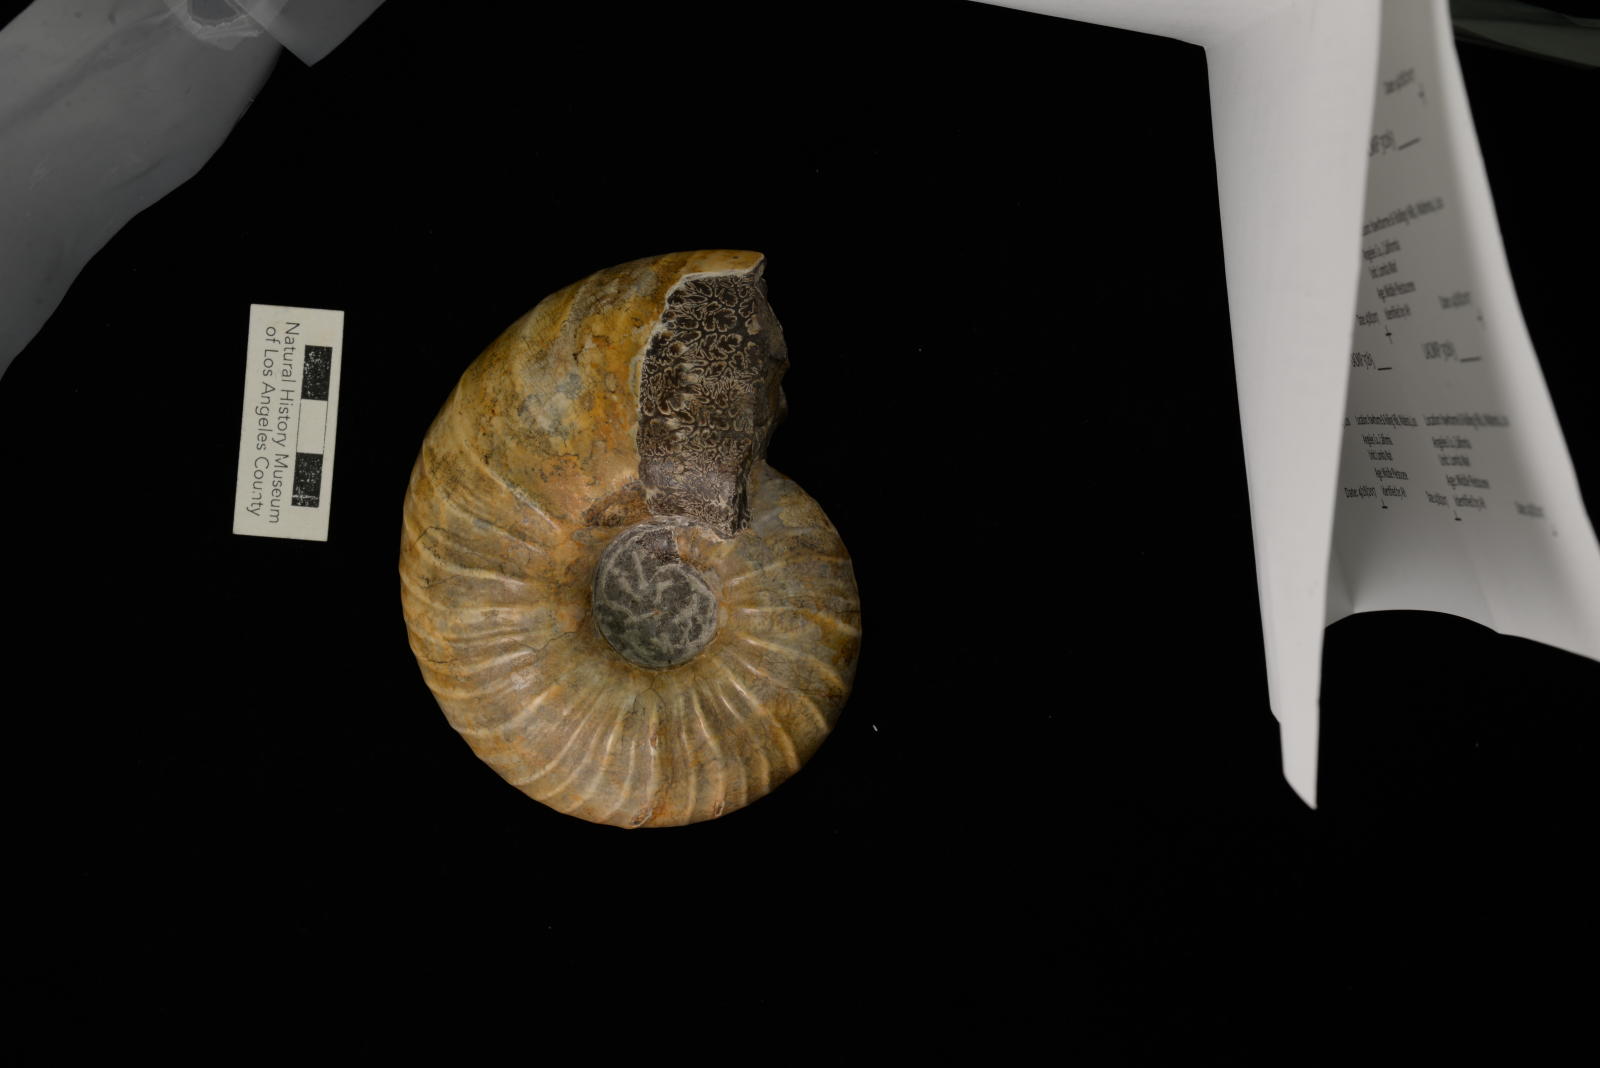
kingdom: Animalia
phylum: Mollusca
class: Cephalopoda
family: Pachydiscidae
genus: Menuites
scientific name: Menuites
